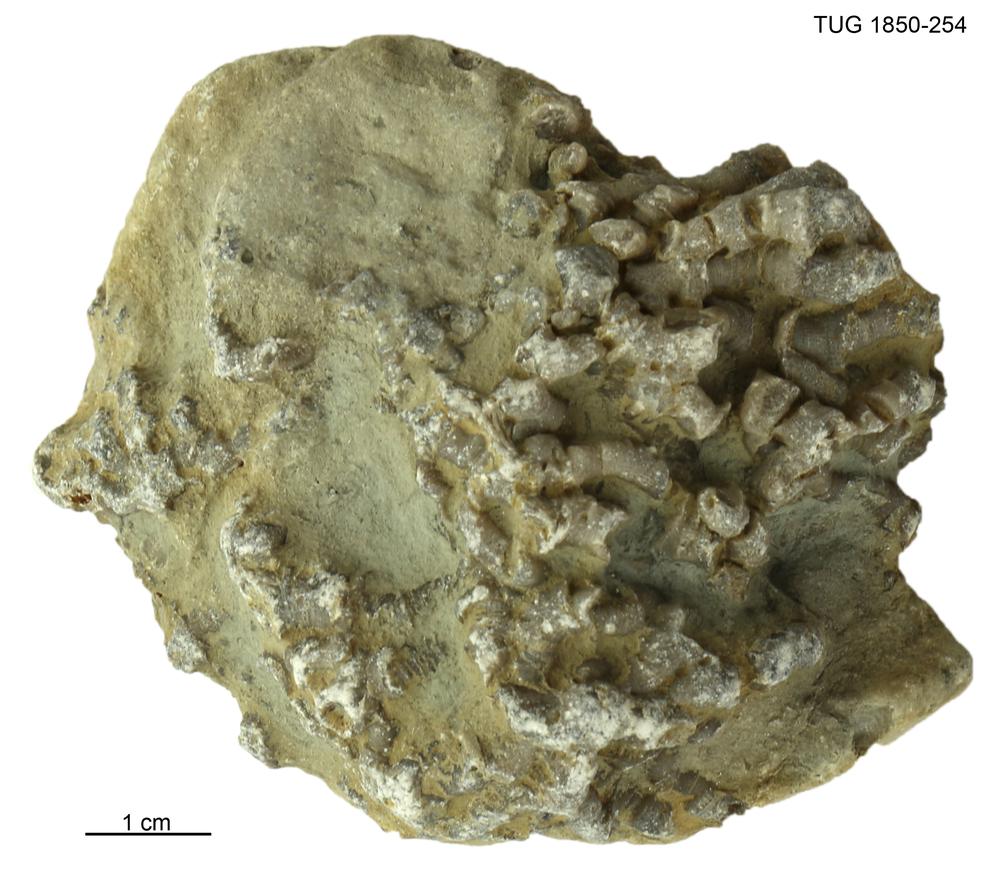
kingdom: Animalia
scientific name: Animalia
